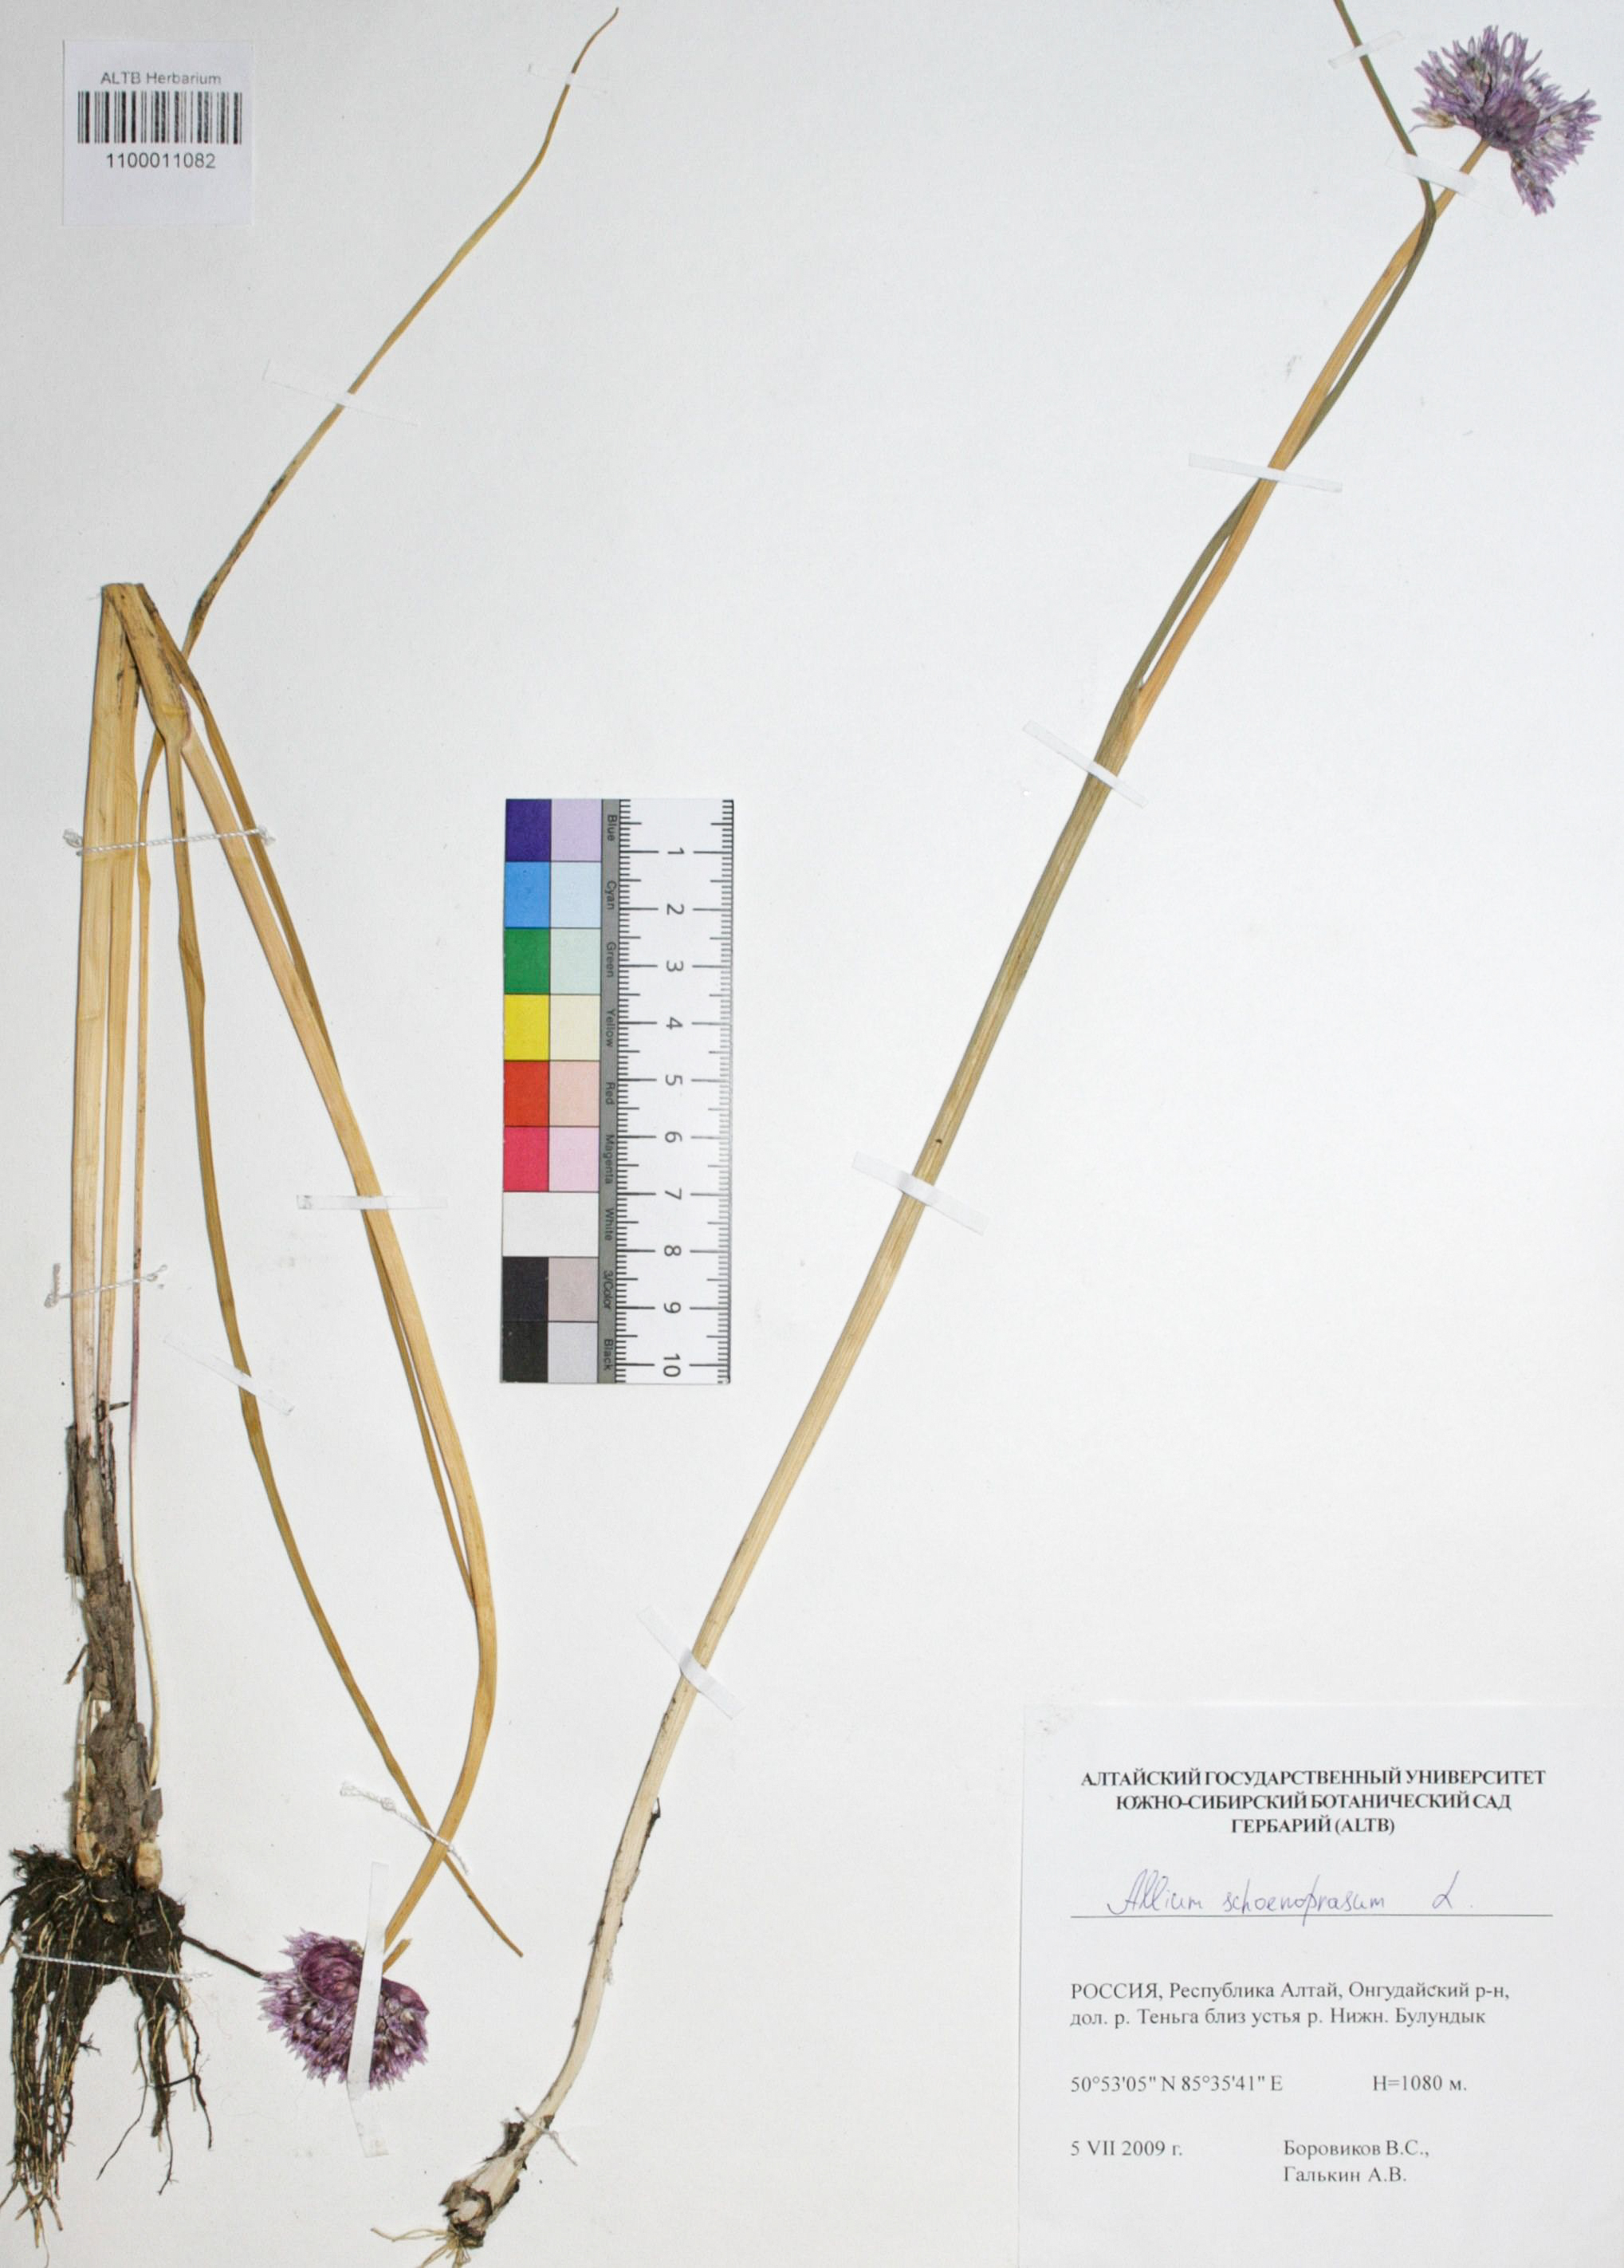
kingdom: Plantae
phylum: Tracheophyta
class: Liliopsida
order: Asparagales
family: Amaryllidaceae
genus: Allium
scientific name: Allium schoenoprasum
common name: Chives
